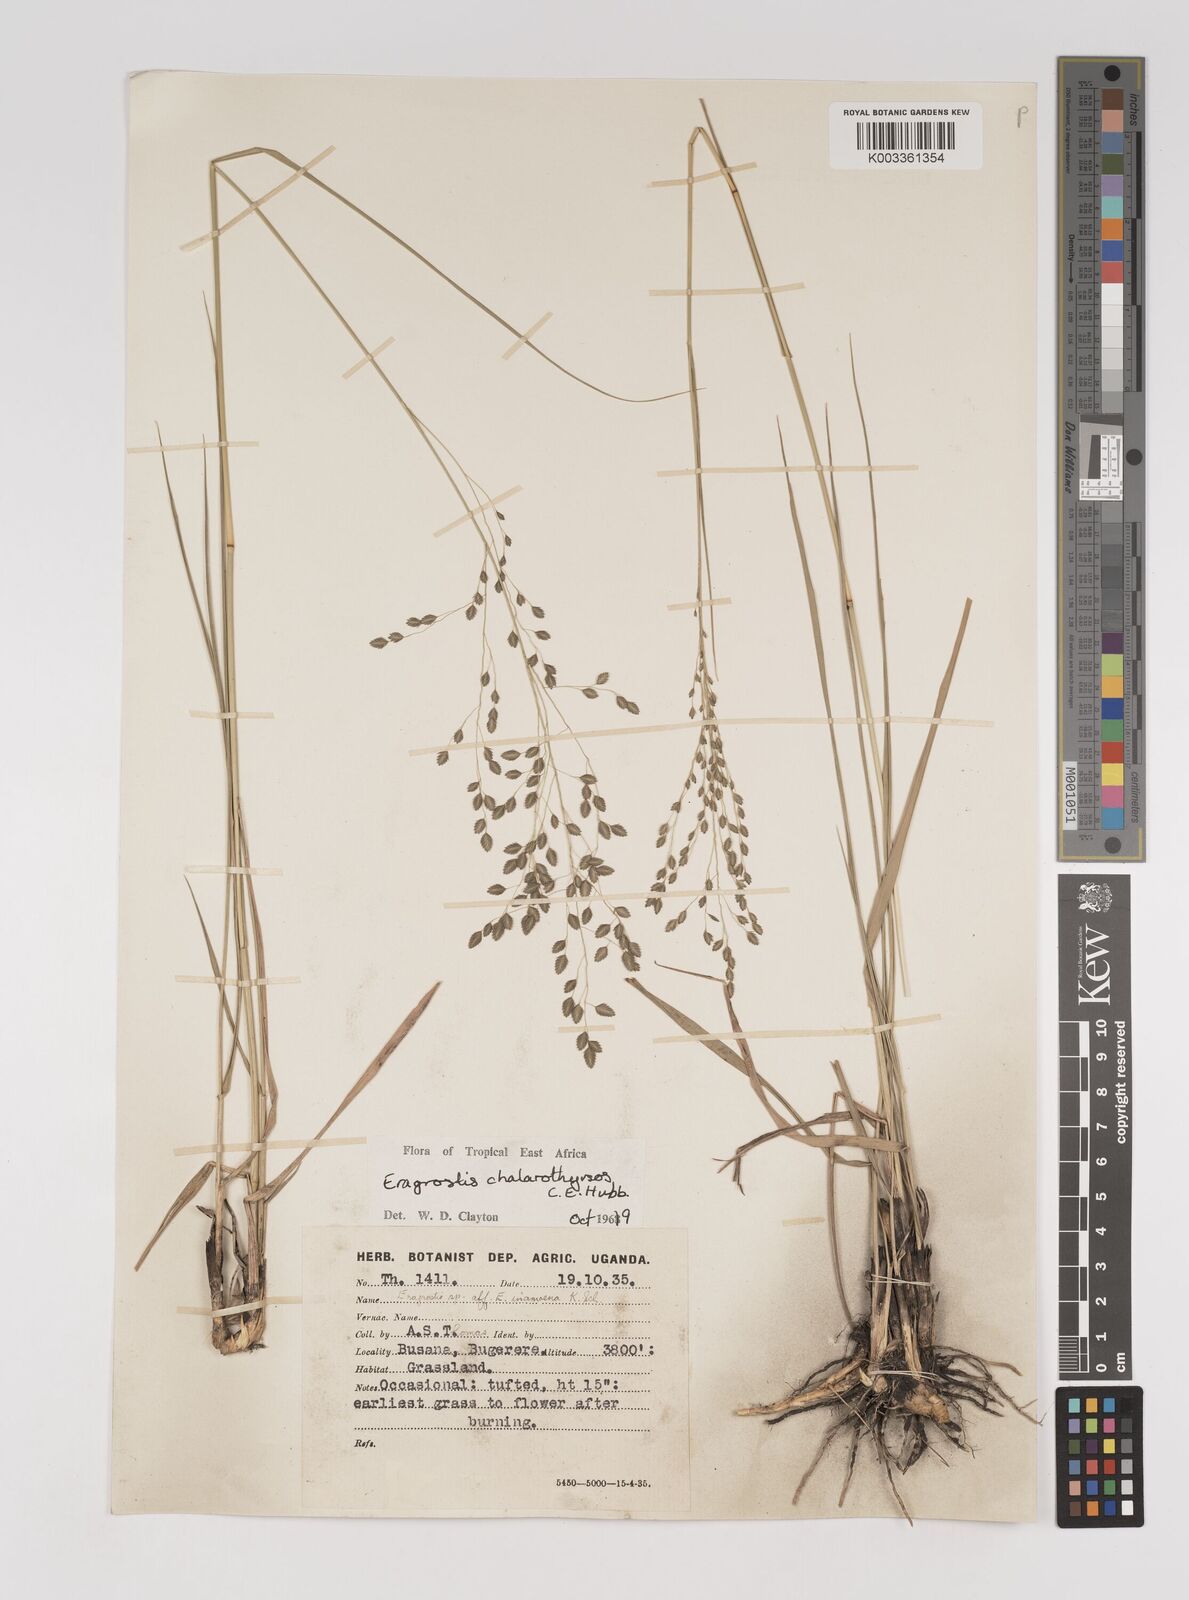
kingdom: Plantae
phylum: Tracheophyta
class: Liliopsida
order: Poales
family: Poaceae
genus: Eragrostis
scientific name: Eragrostis chalarothyrsos
